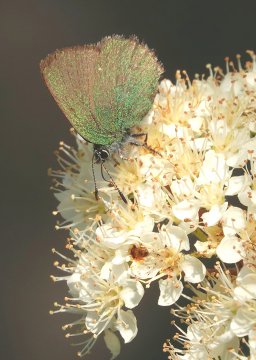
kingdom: Animalia
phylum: Arthropoda
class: Insecta
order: Lepidoptera
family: Lycaenidae
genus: Callophrys
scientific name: Callophrys rubi
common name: Green Hairstreak
